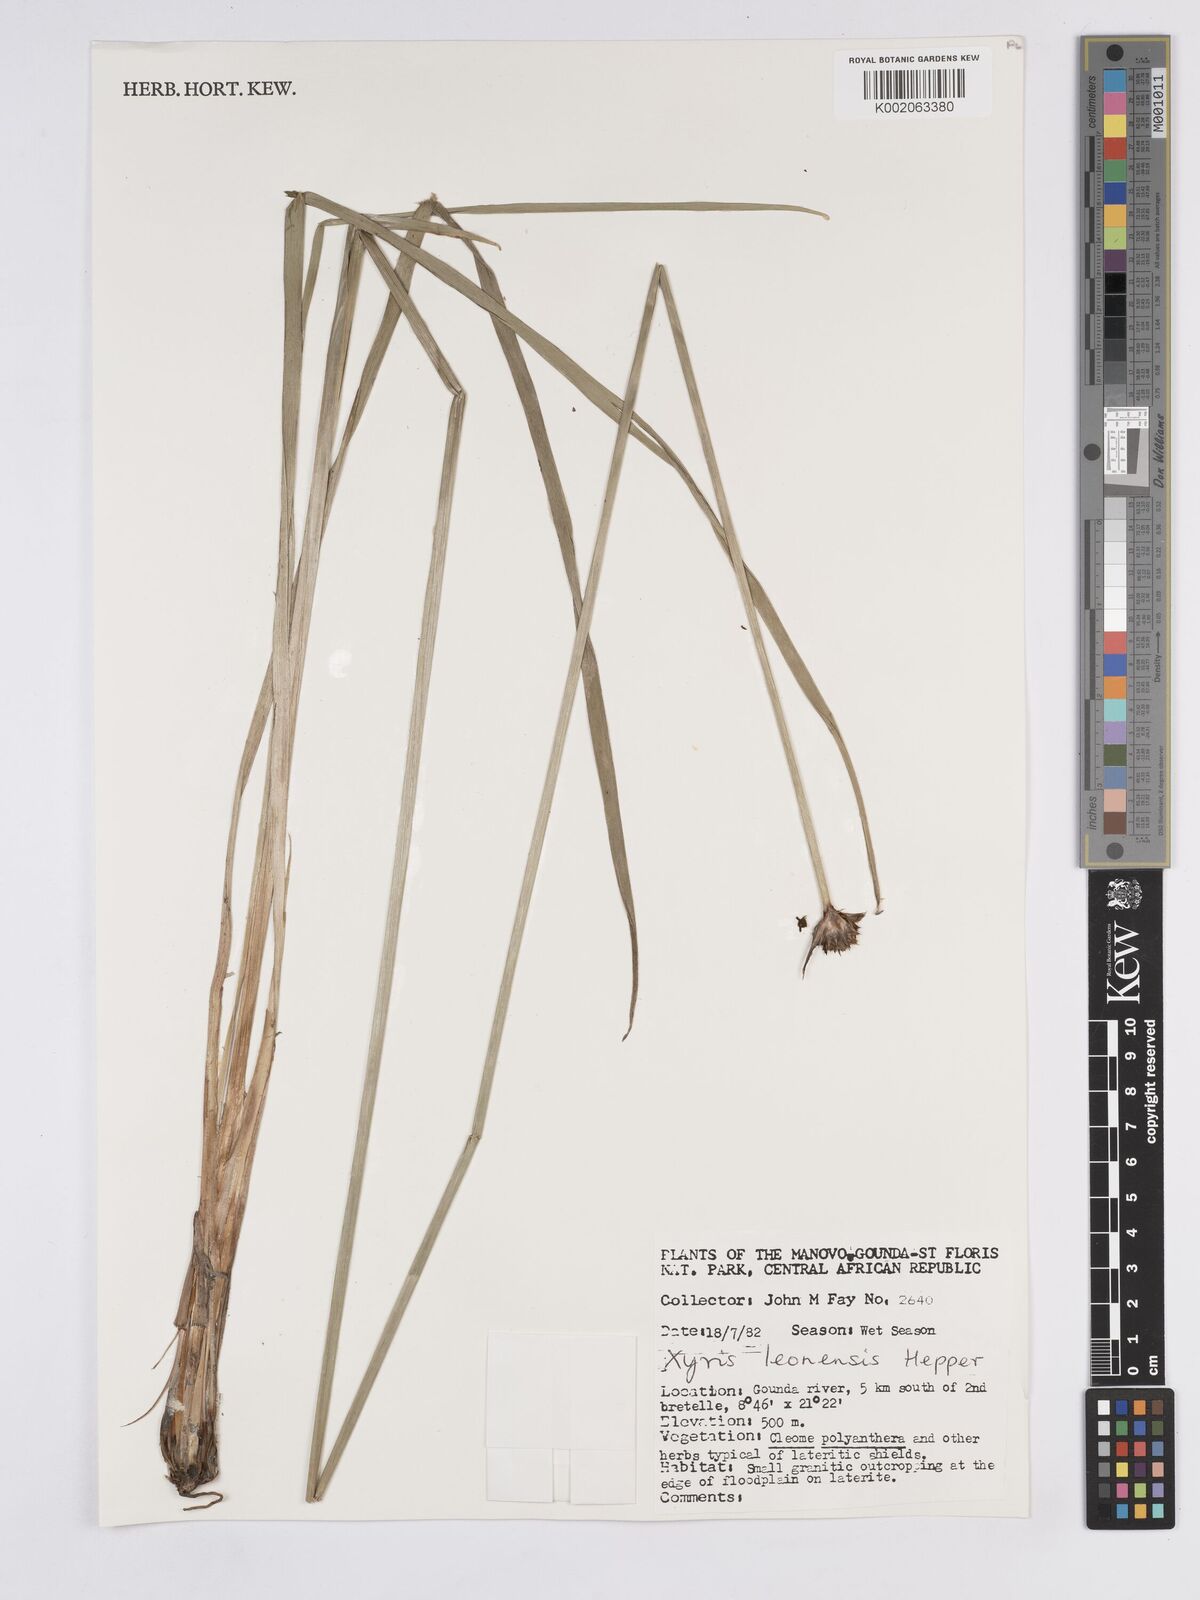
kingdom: Plantae
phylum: Tracheophyta
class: Liliopsida
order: Poales
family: Xyridaceae
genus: Xyris
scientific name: Xyris leonensis
